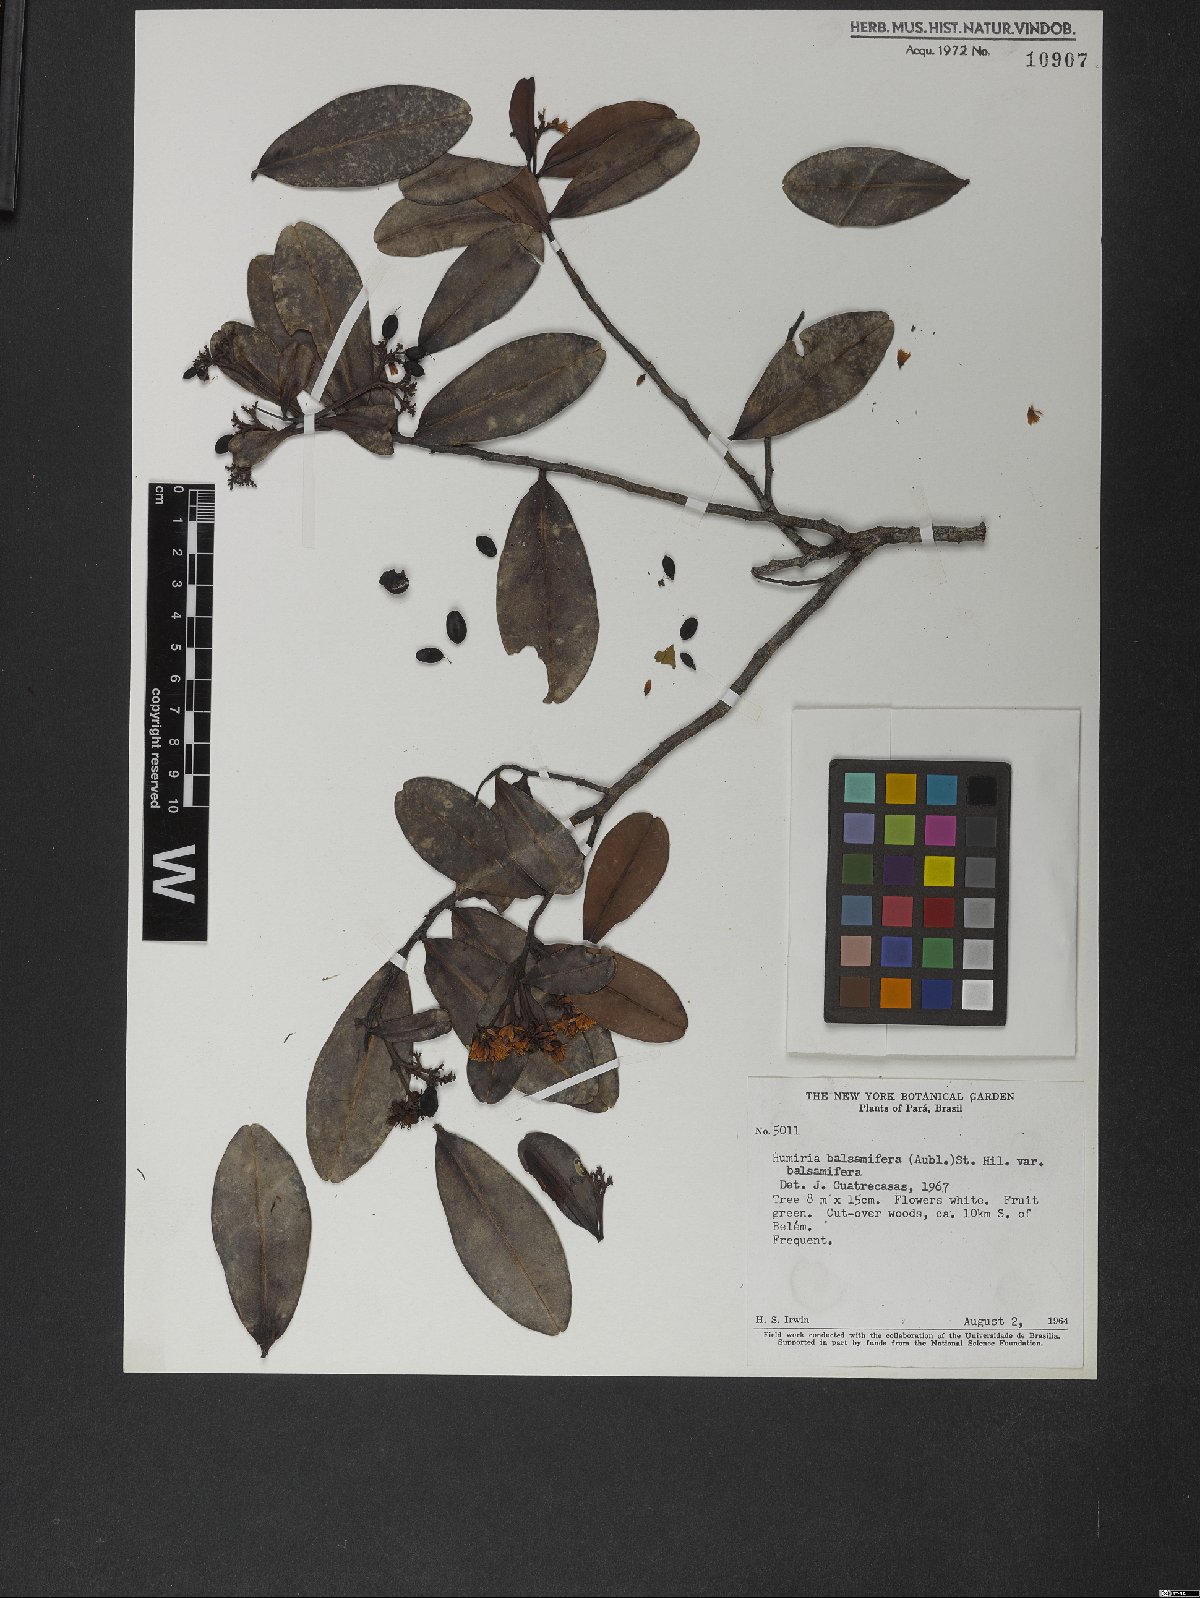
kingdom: Plantae
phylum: Tracheophyta
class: Magnoliopsida
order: Malpighiales
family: Humiriaceae
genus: Humiria
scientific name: Humiria balsamifera
